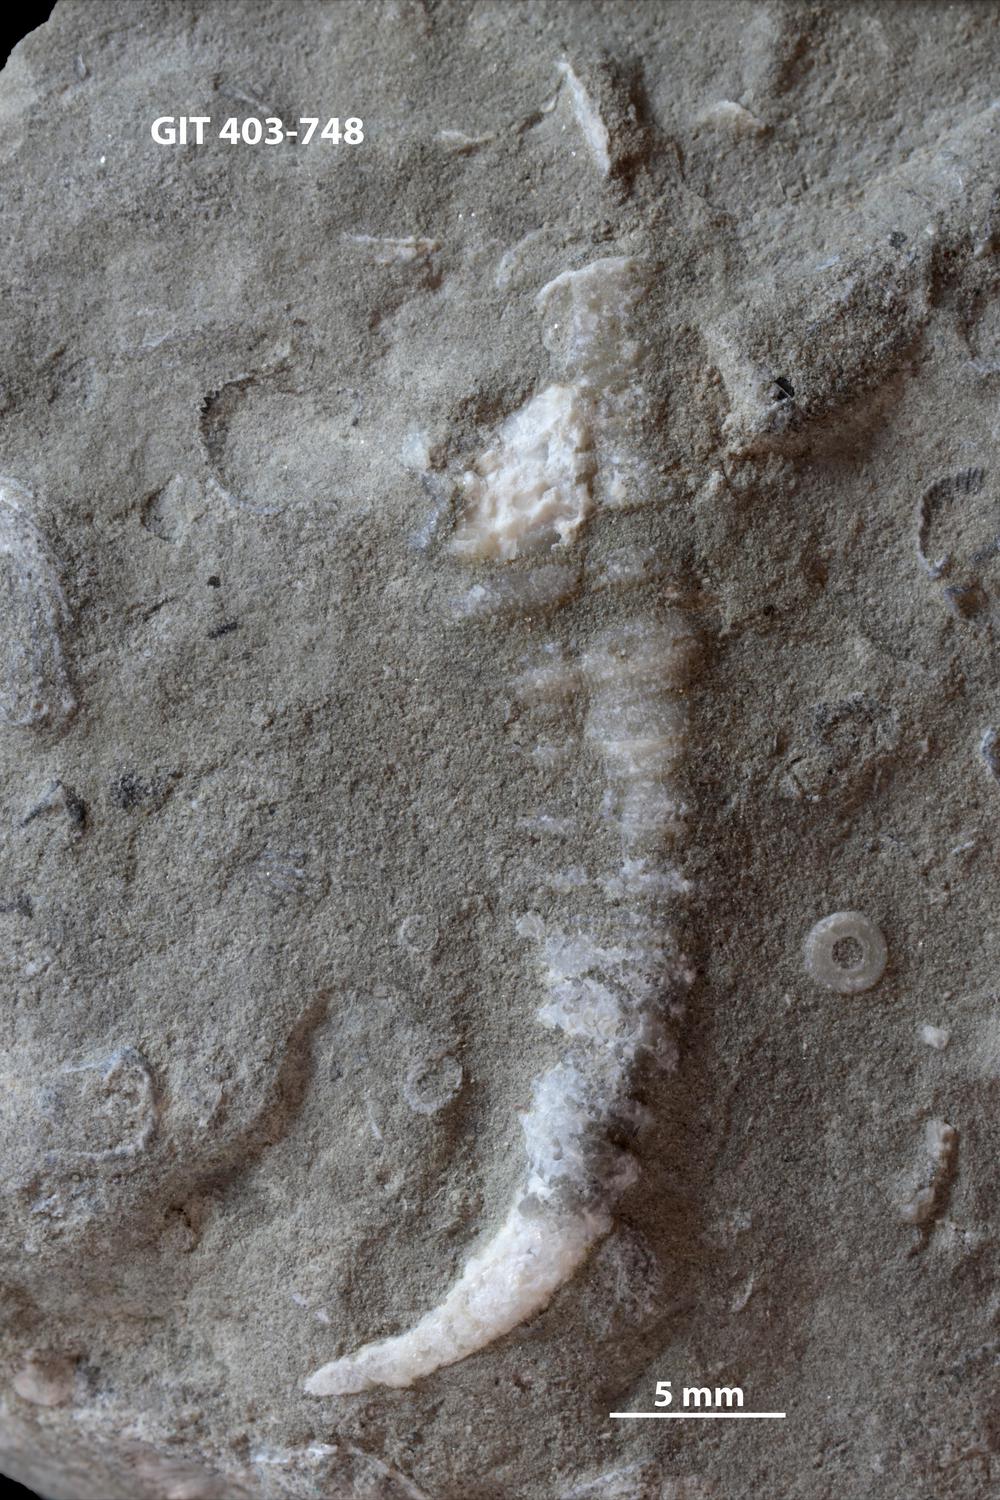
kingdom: Animalia
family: Cornulitidae
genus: Cornulites
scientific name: Cornulites
